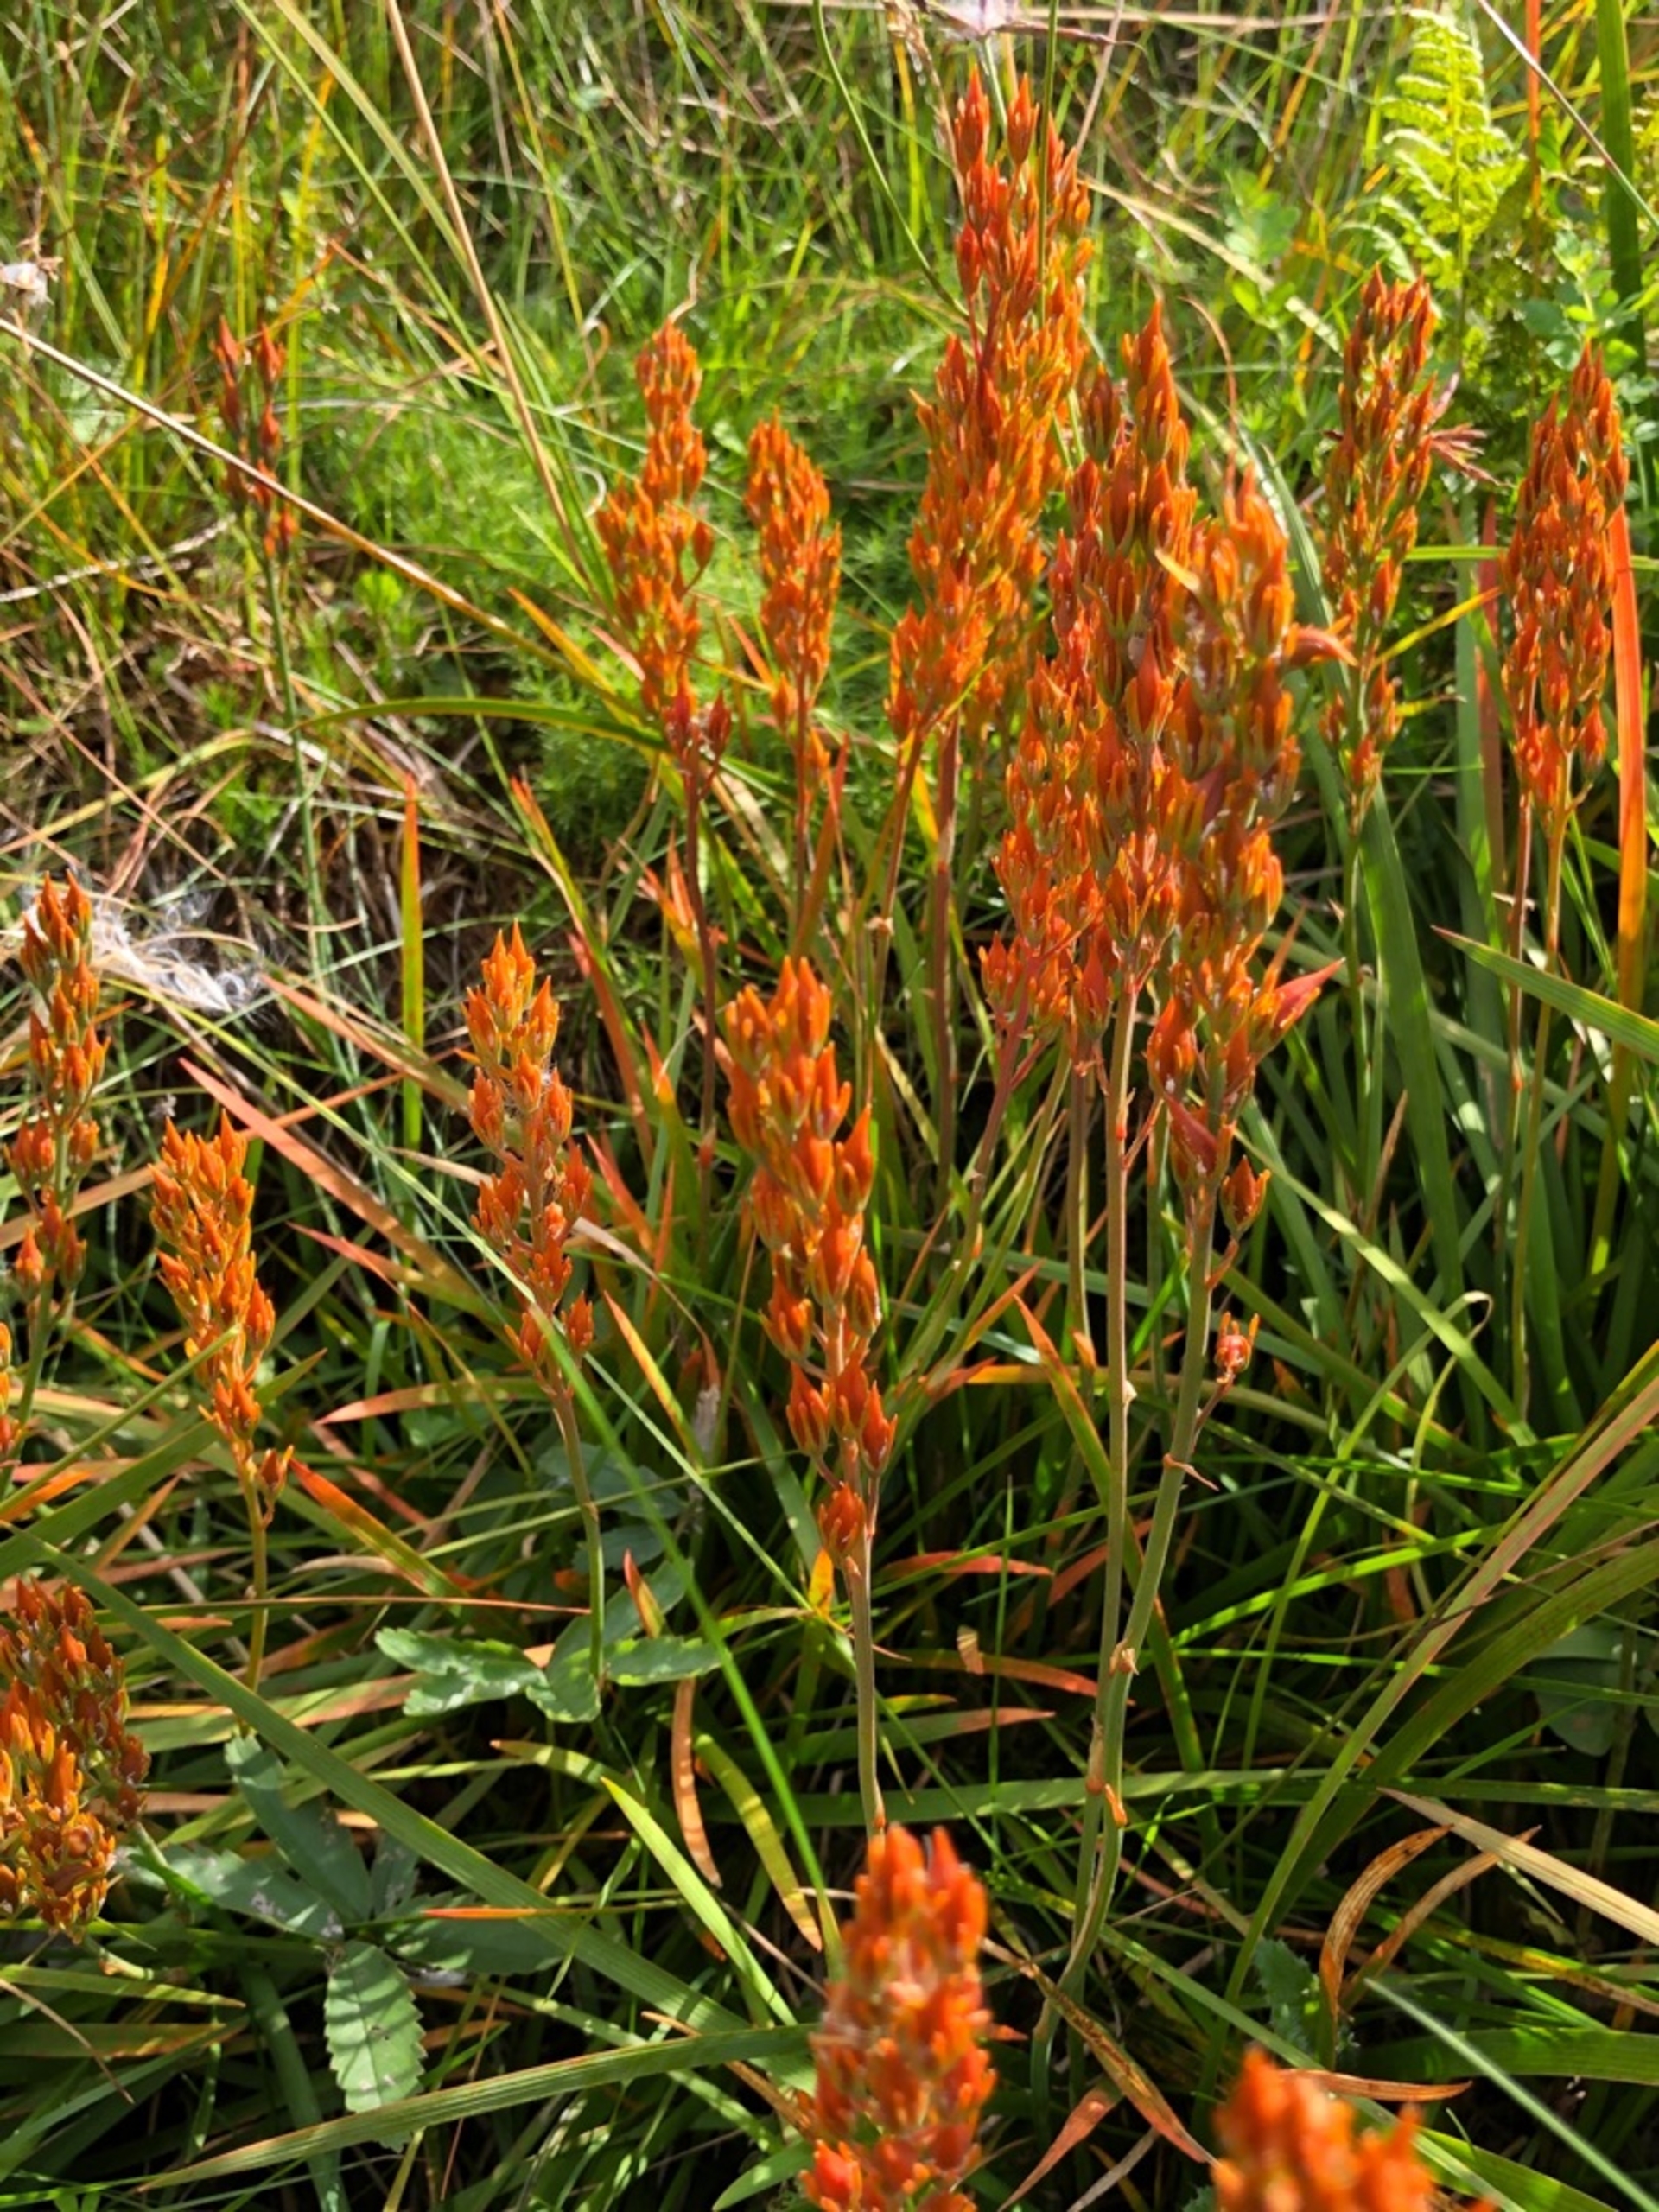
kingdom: Plantae
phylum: Tracheophyta
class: Liliopsida
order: Dioscoreales
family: Nartheciaceae
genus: Narthecium
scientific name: Narthecium ossifragum
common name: Benbræk
